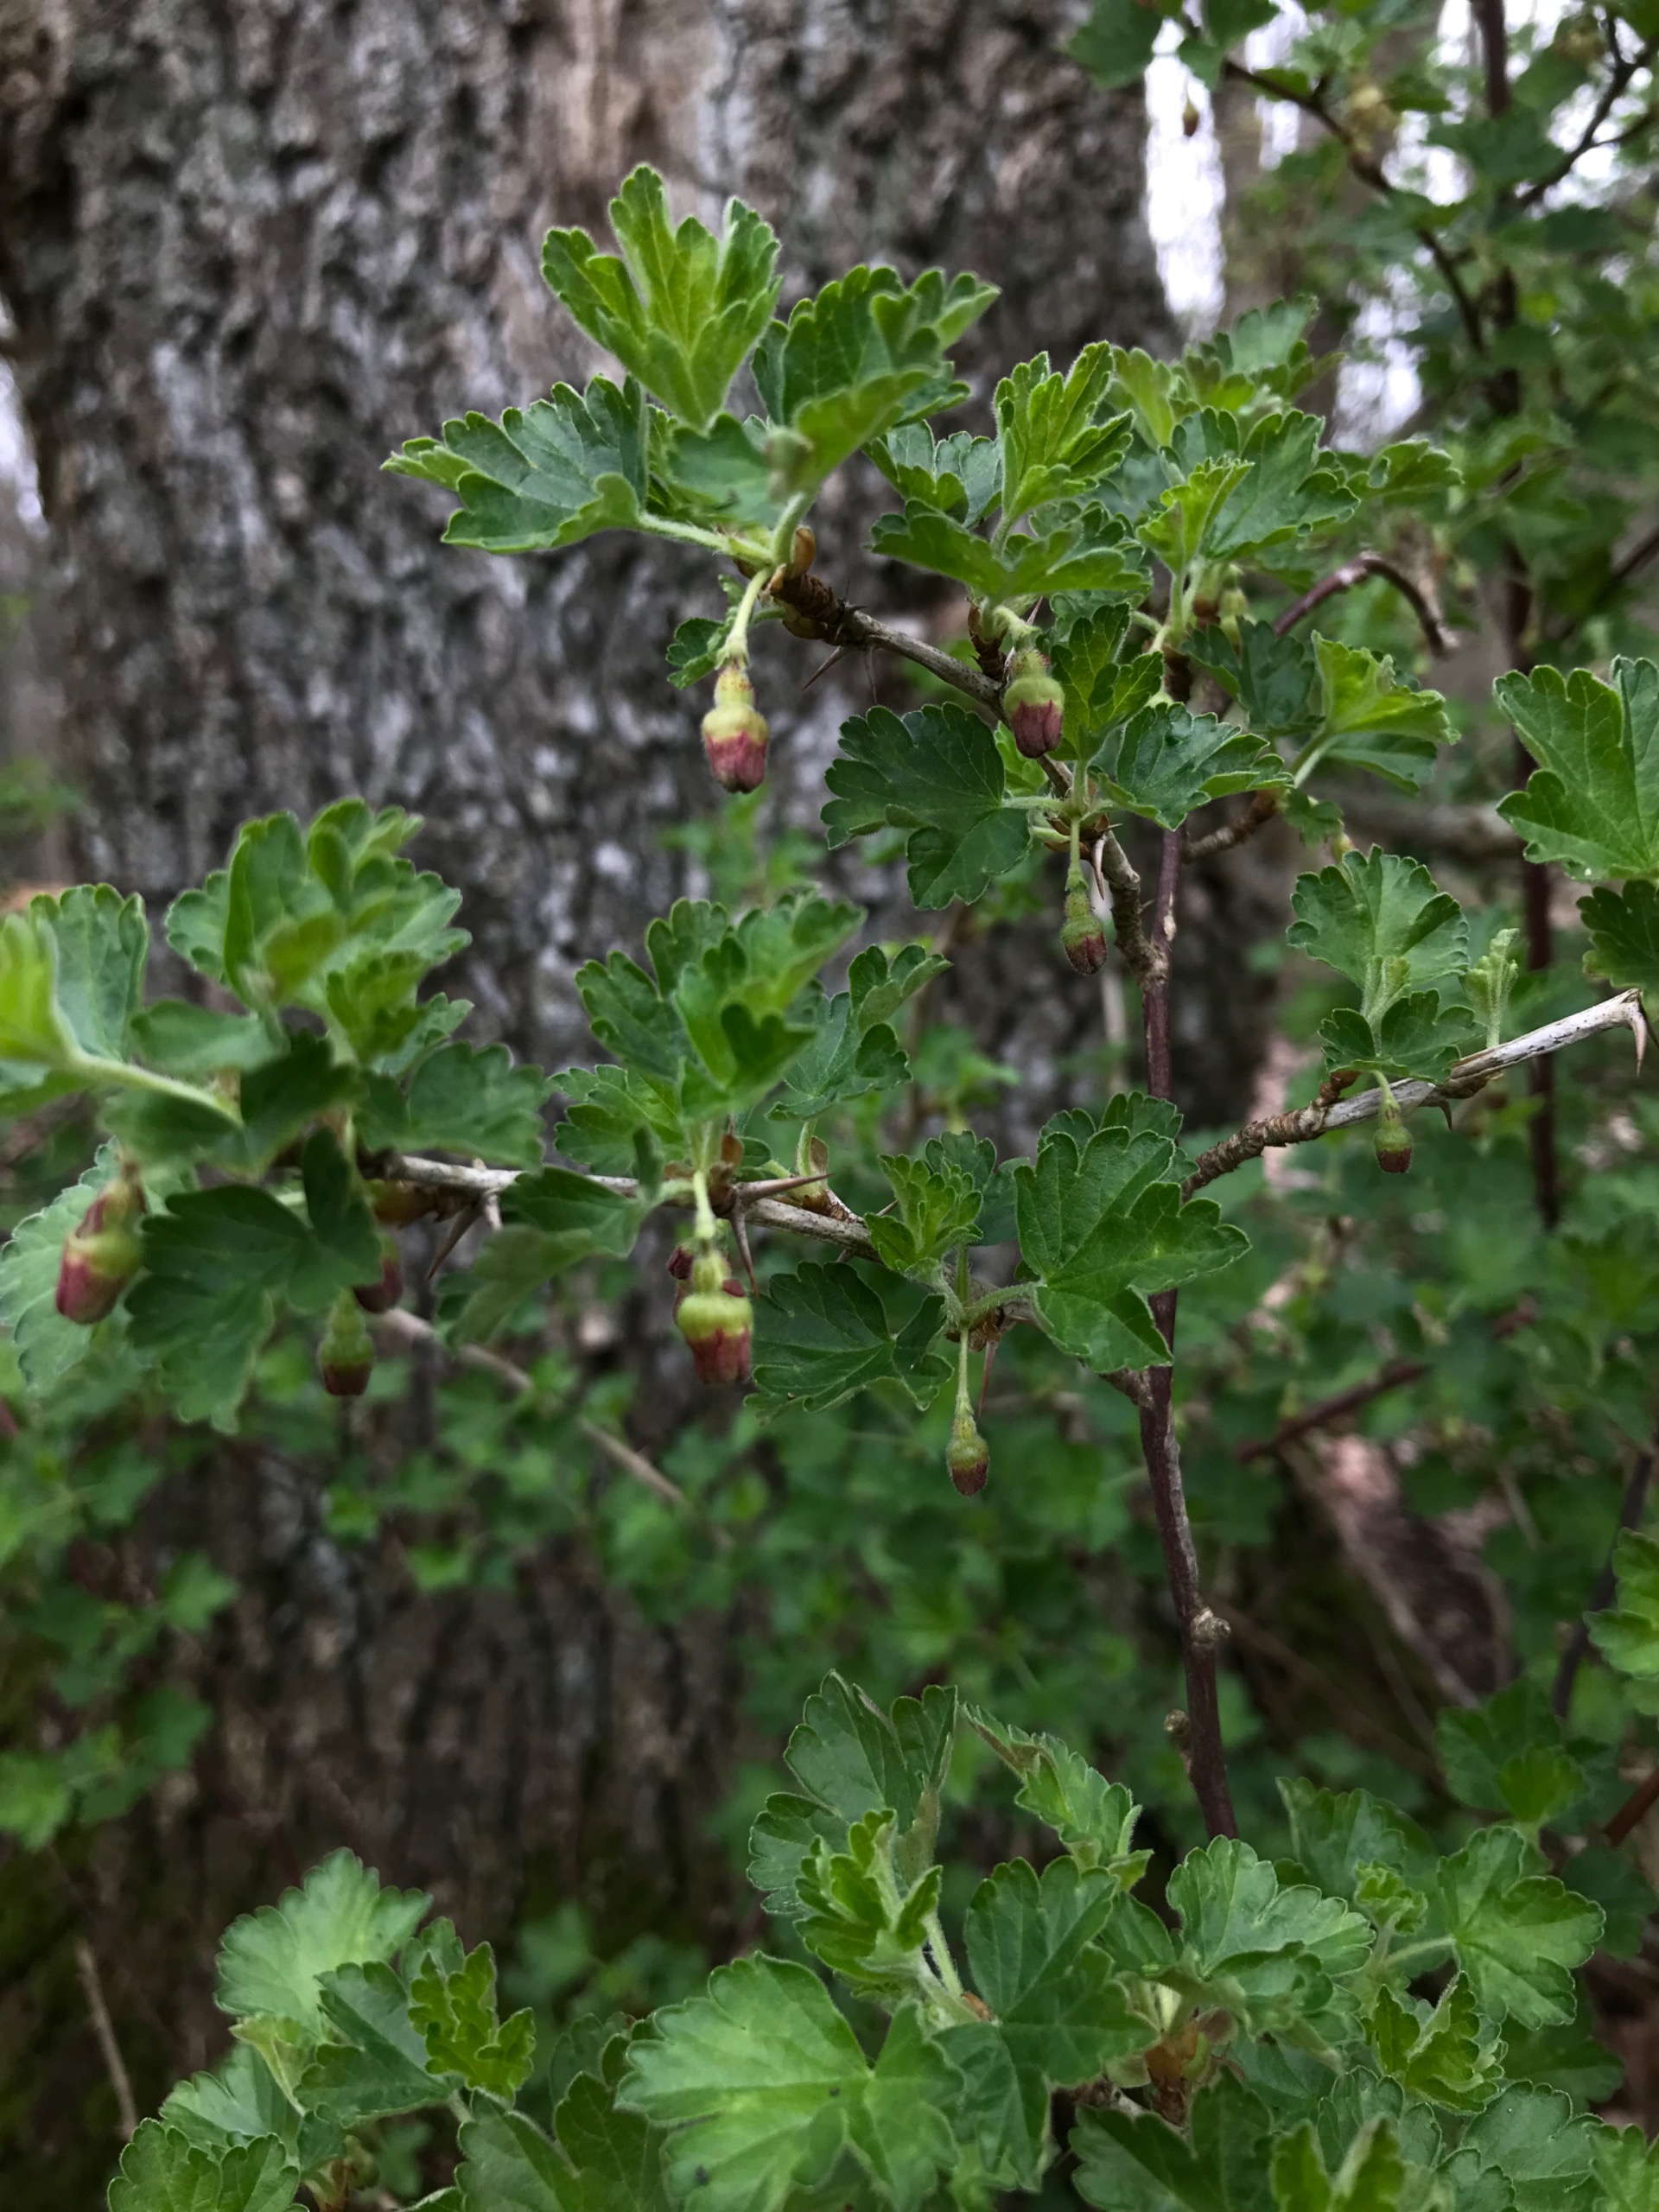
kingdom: Plantae
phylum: Tracheophyta
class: Magnoliopsida
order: Saxifragales
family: Grossulariaceae
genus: Ribes
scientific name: Ribes uva-crispa
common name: Stikkelsbær
